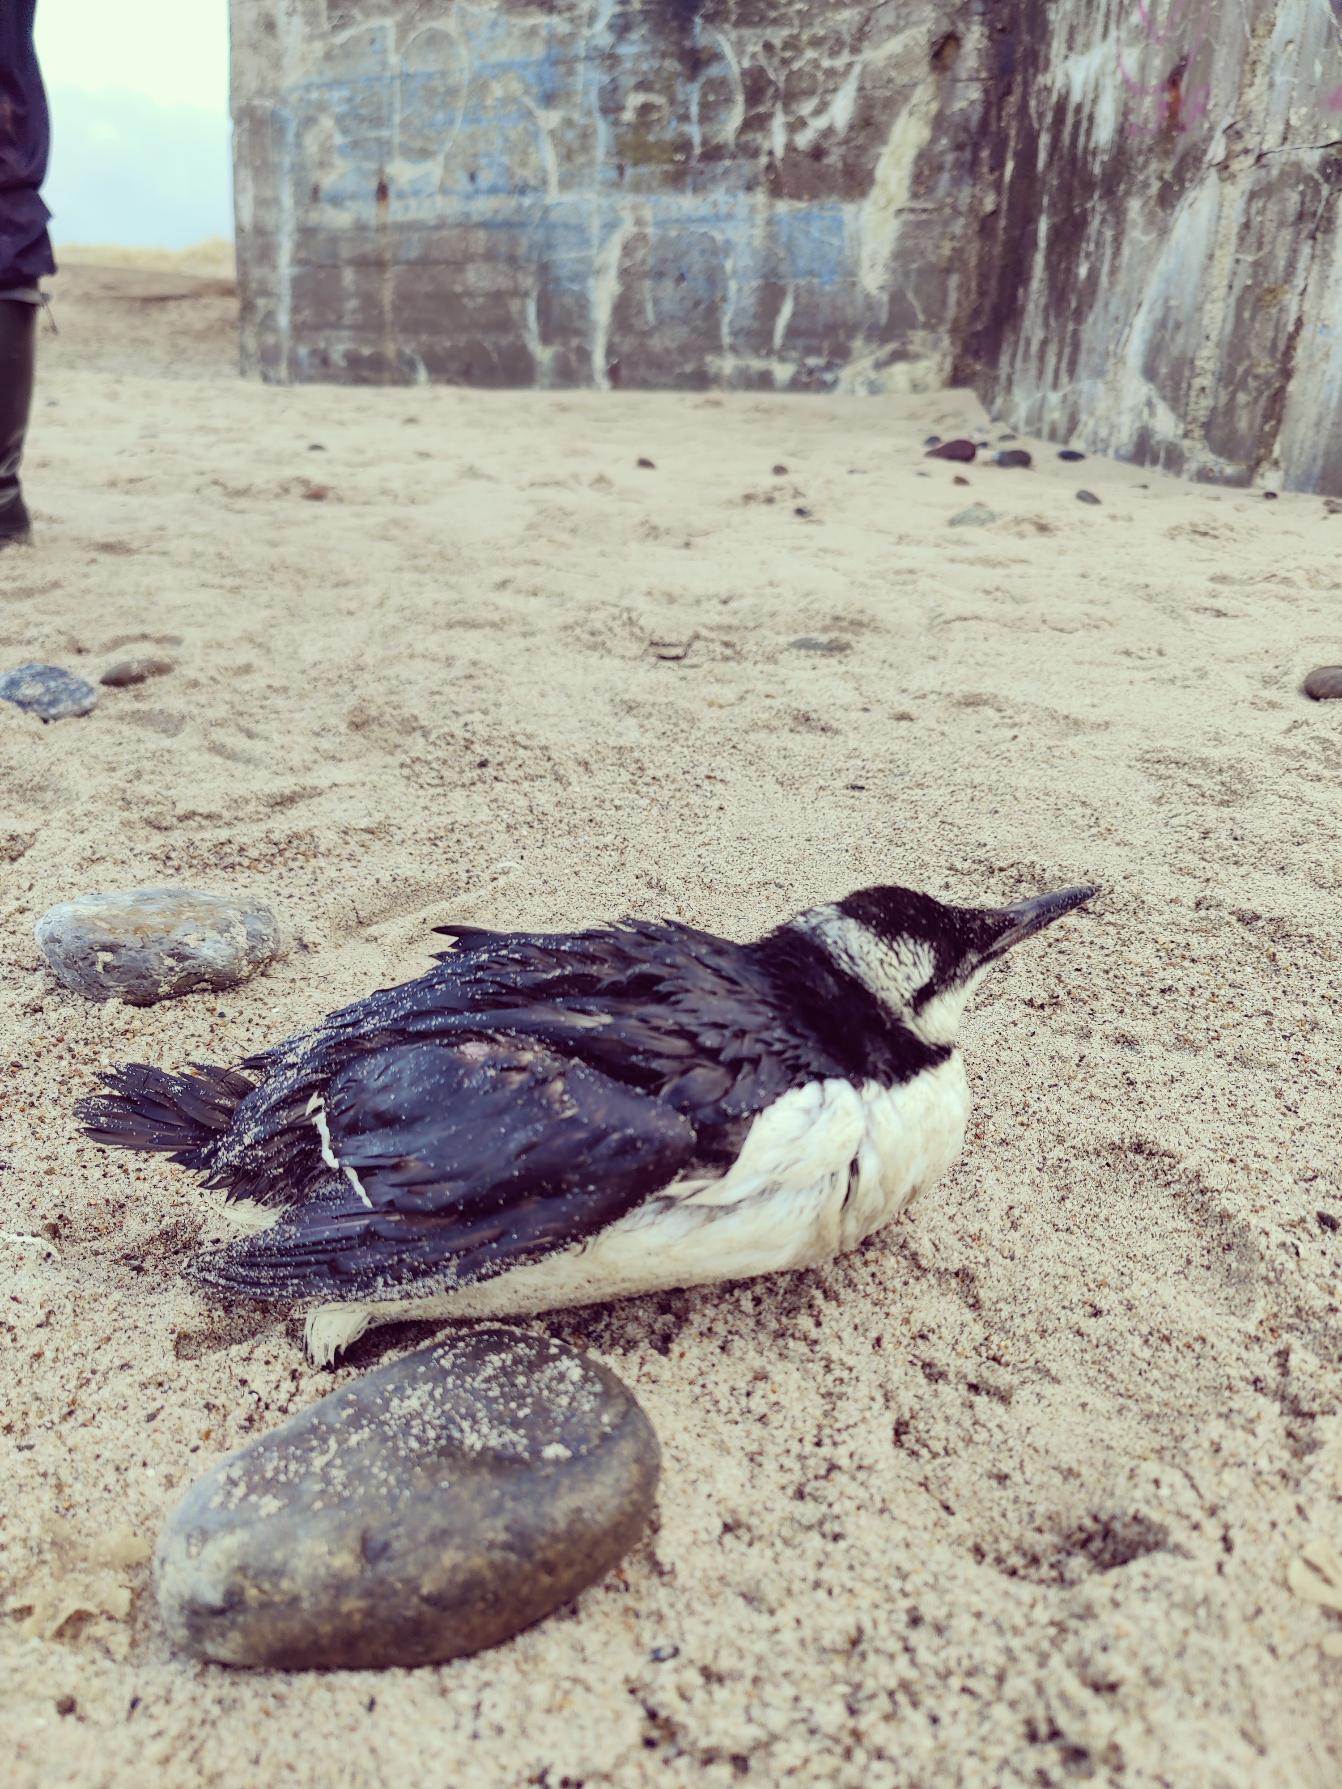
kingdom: Animalia
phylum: Chordata
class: Aves
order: Charadriiformes
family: Alcidae
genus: Uria
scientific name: Uria aalge
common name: Lomvie
